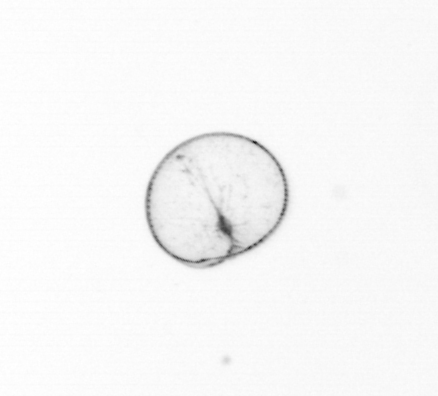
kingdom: Chromista
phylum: Myzozoa
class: Dinophyceae
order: Noctilucales
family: Noctilucaceae
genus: Noctiluca
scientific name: Noctiluca scintillans
